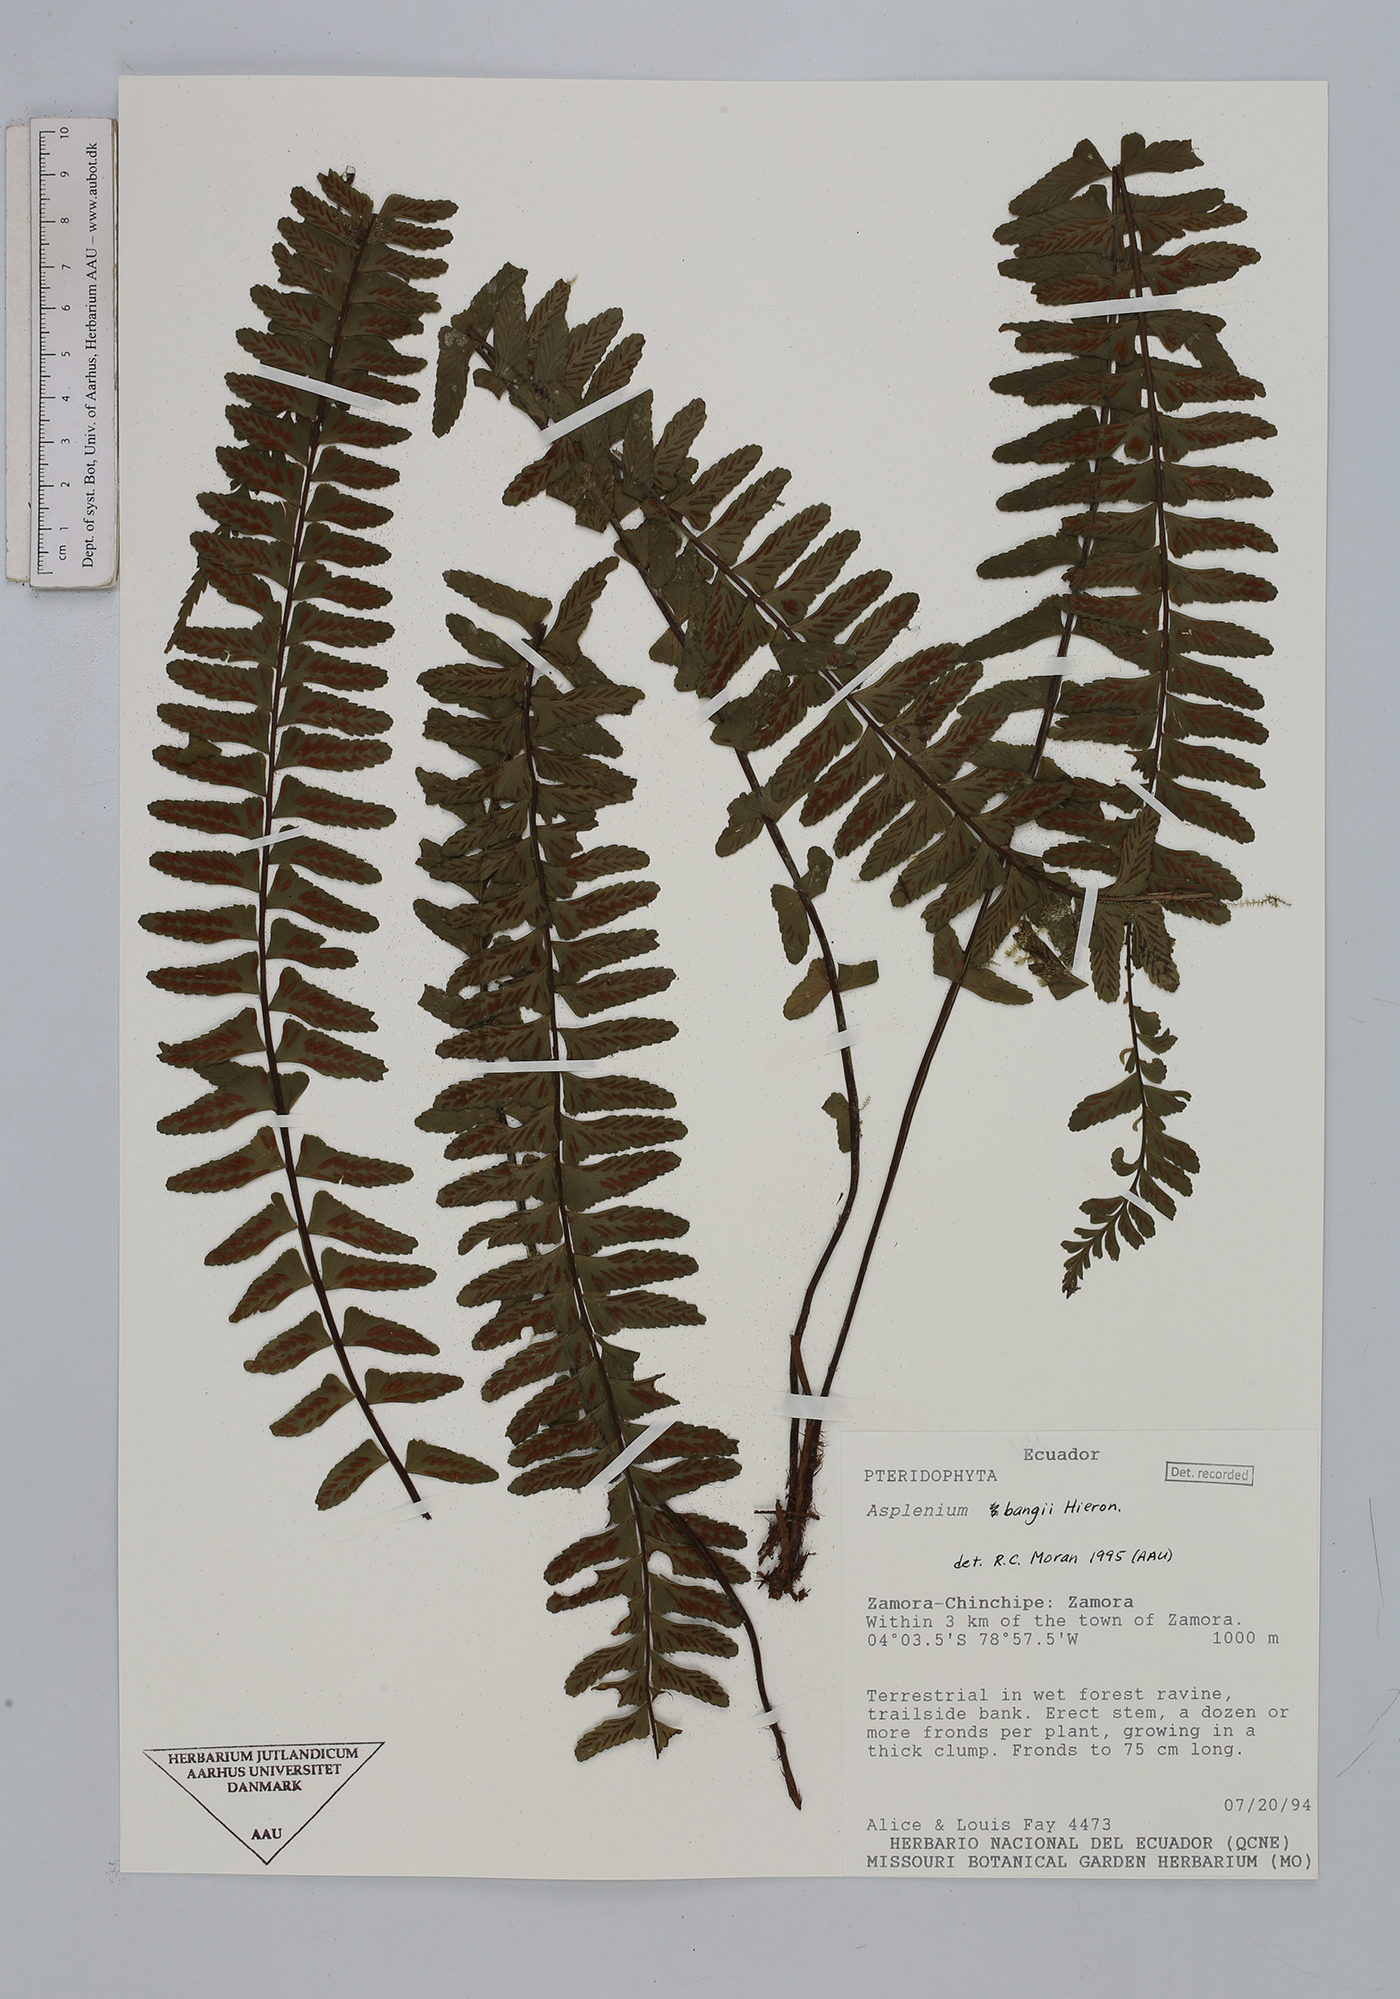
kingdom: Plantae
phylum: Tracheophyta
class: Polypodiopsida
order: Polypodiales
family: Aspleniaceae
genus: Asplenium
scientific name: Asplenium bangii
